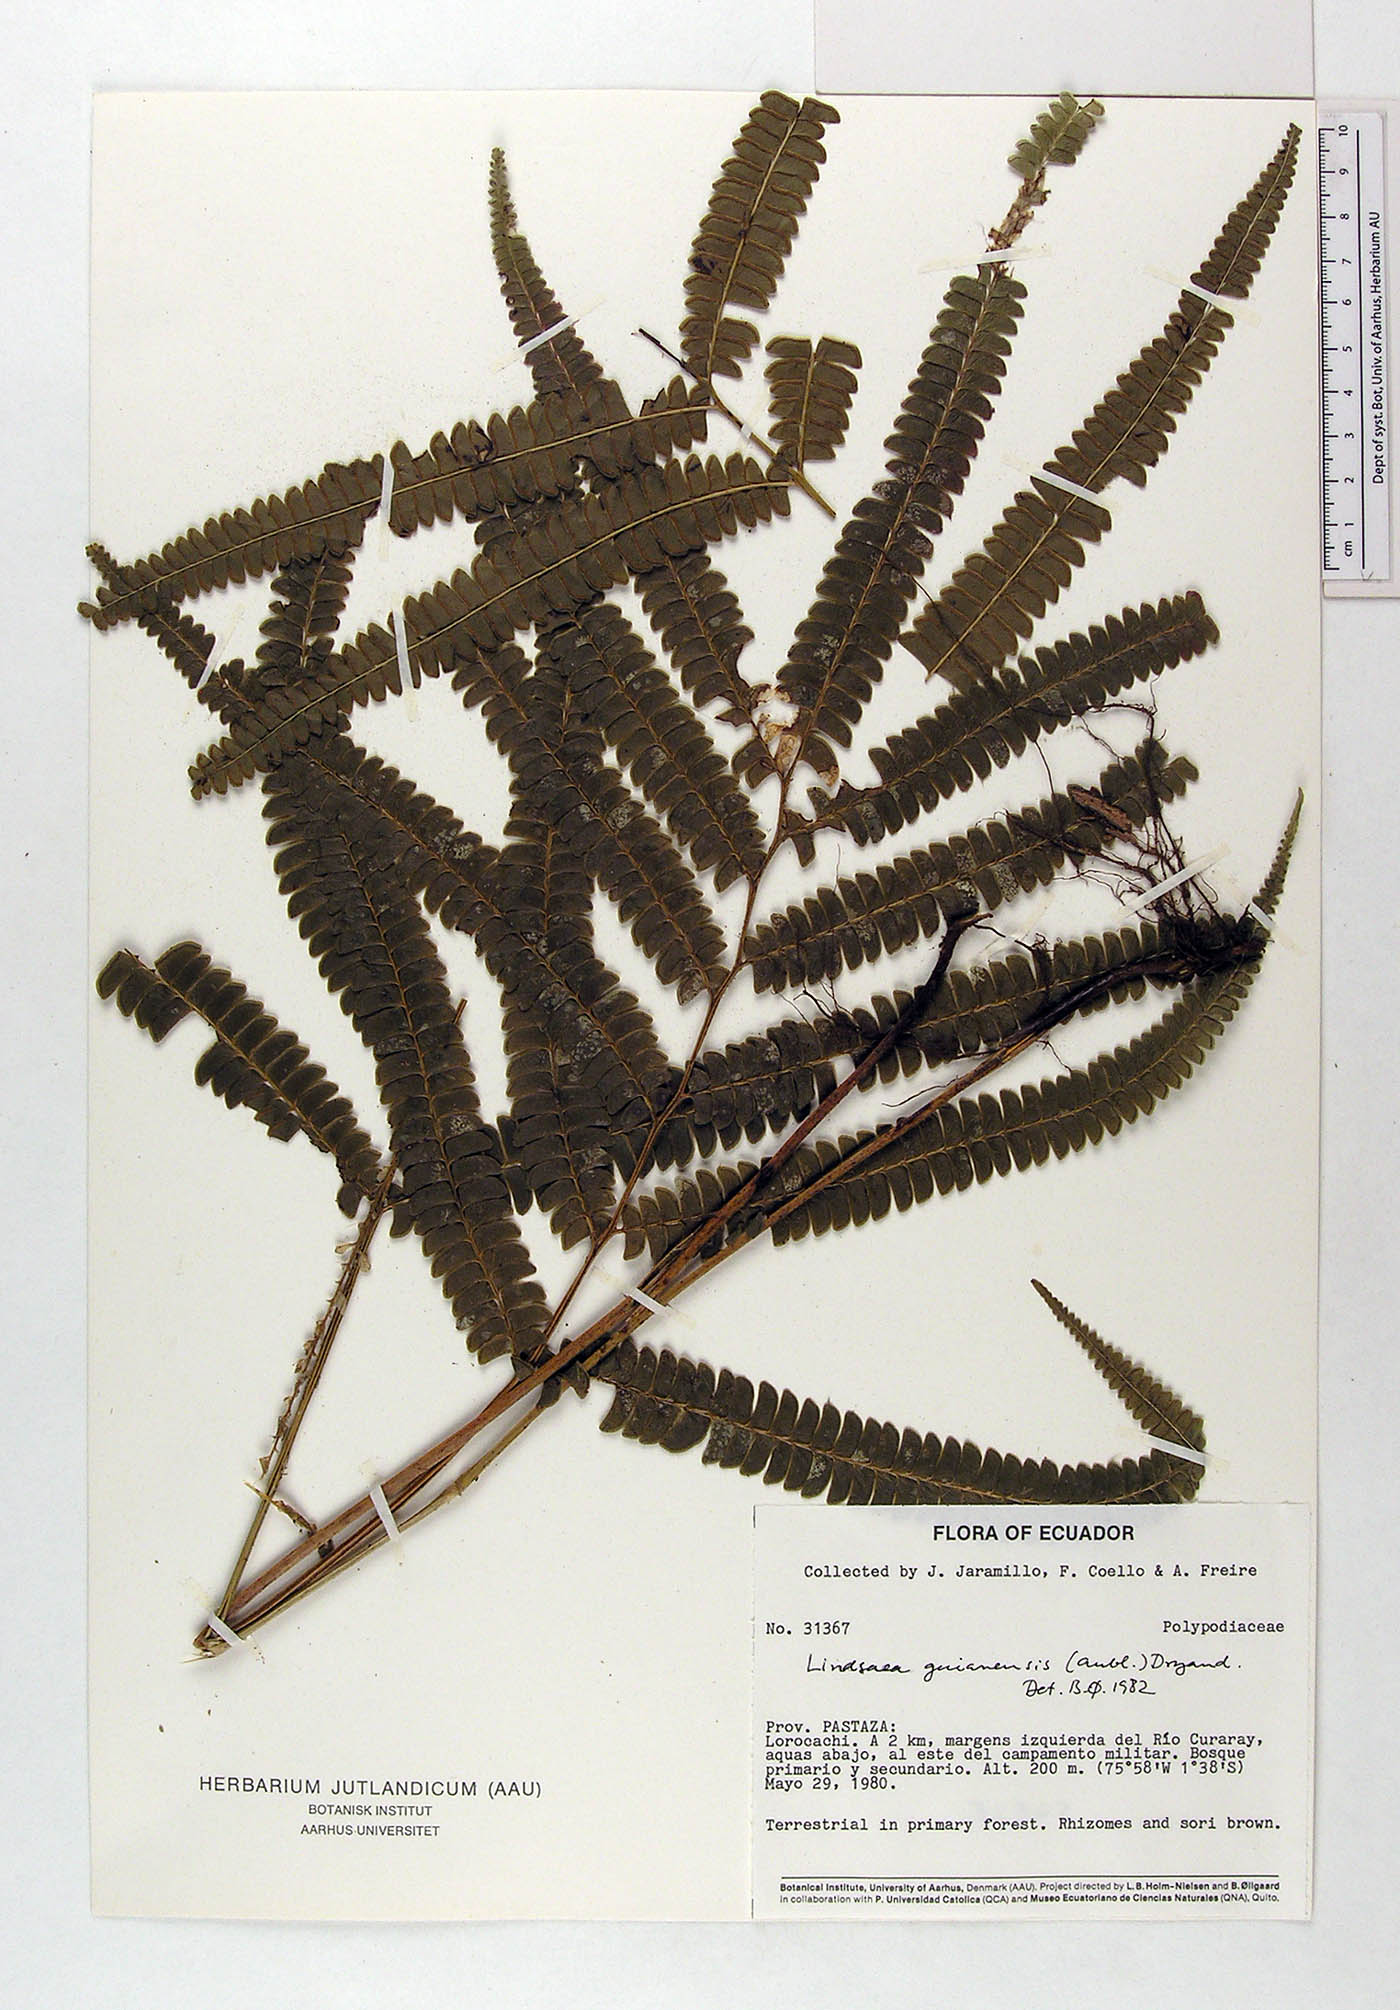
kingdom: Plantae
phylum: Tracheophyta
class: Polypodiopsida
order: Polypodiales
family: Lindsaeaceae
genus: Lindsaea
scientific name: Lindsaea guianensis
